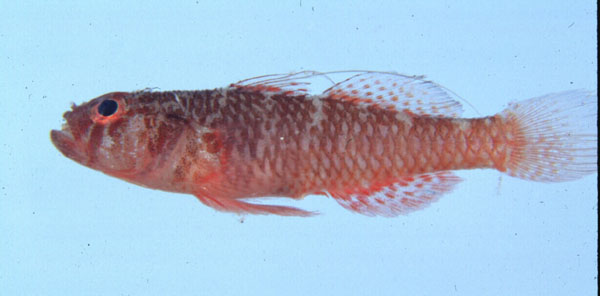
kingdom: Animalia
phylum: Chordata
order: Perciformes
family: Gobiidae
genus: Trimma
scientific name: Trimma mendelssohni
